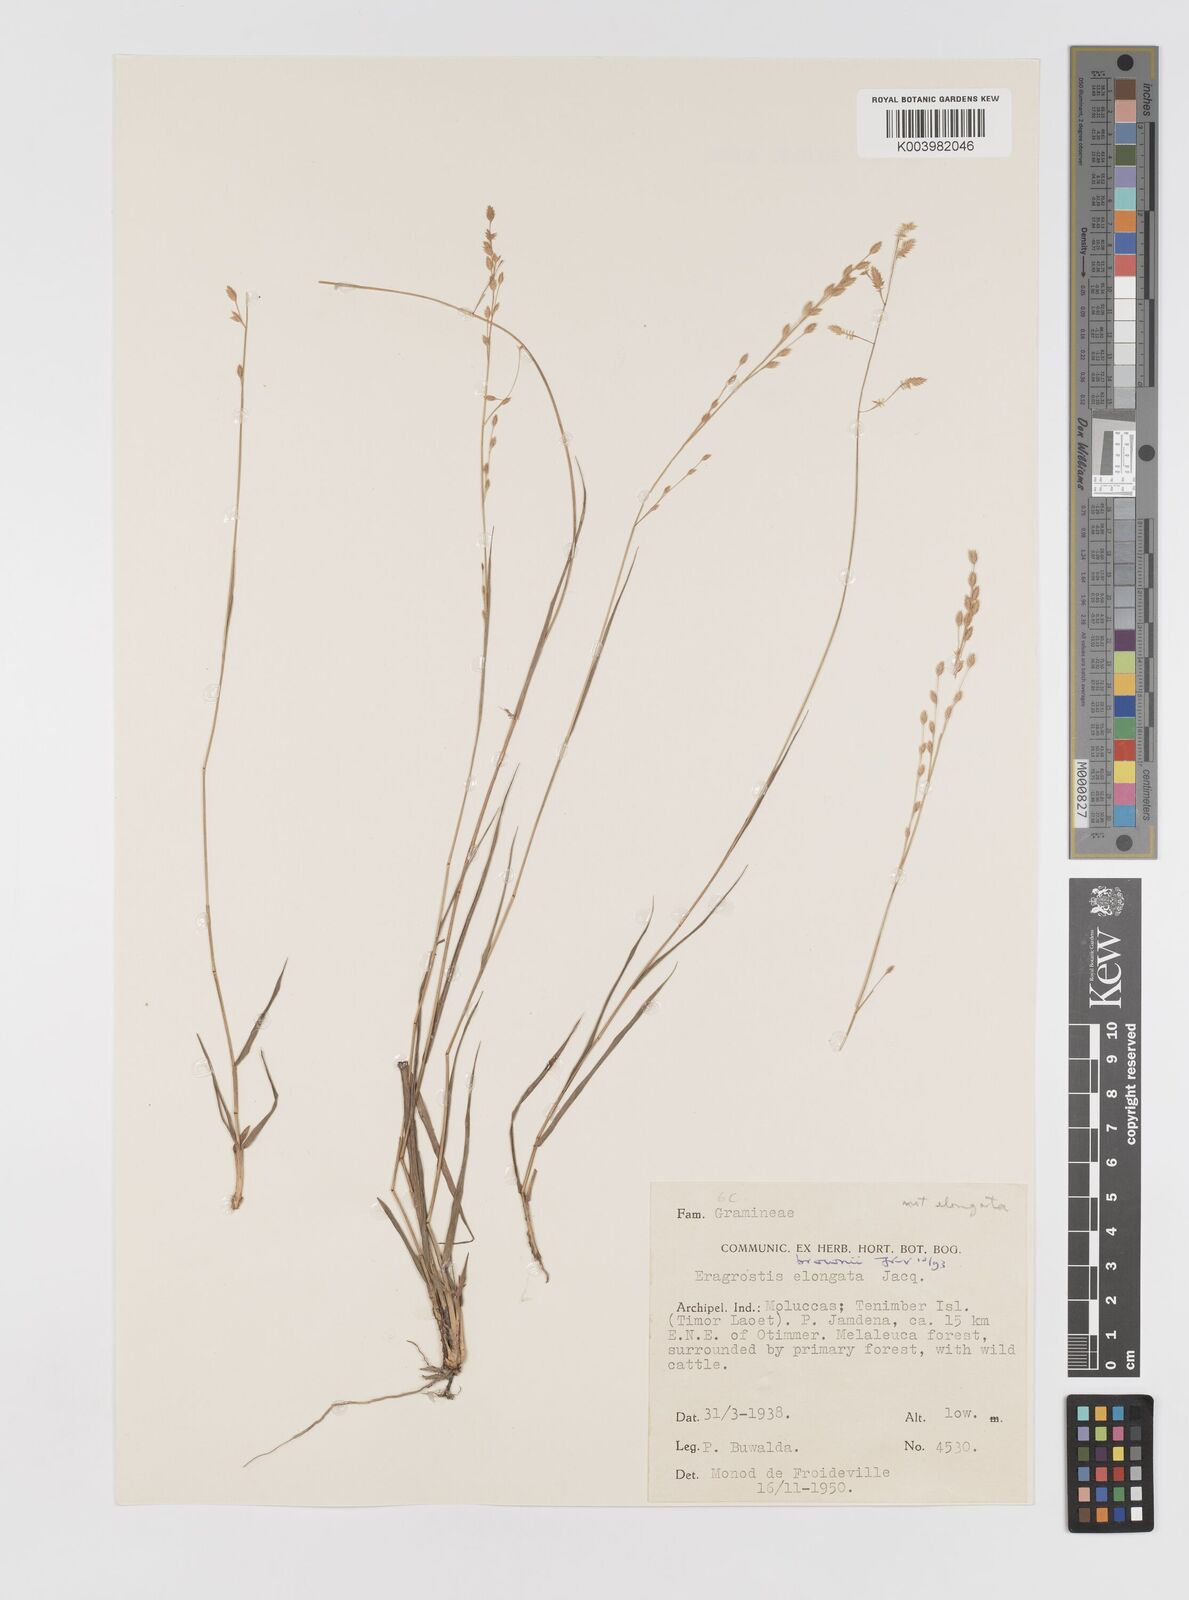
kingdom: Plantae
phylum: Tracheophyta
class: Liliopsida
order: Poales
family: Poaceae
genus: Eragrostis
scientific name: Eragrostis brownii
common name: Lovegrass
